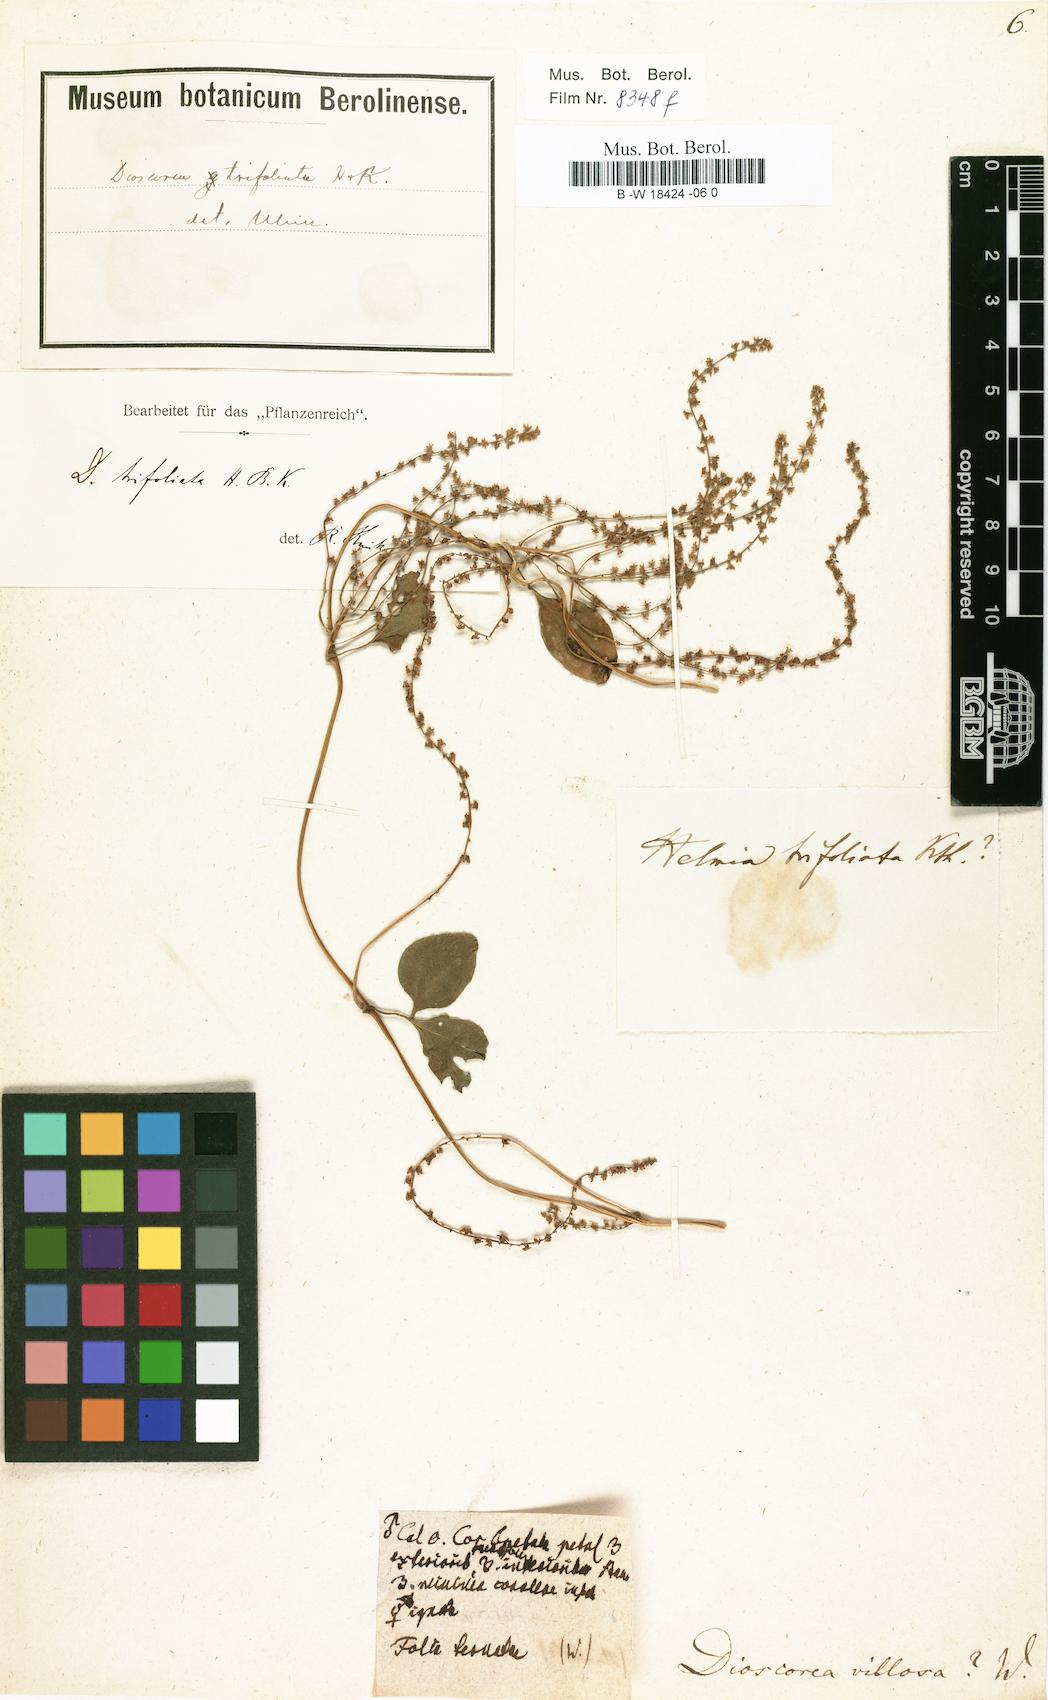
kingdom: Plantae
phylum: Tracheophyta
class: Liliopsida
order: Dioscoreales
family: Dioscoreaceae
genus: Dioscorea
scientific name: Dioscorea villosa
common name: Wild yam
